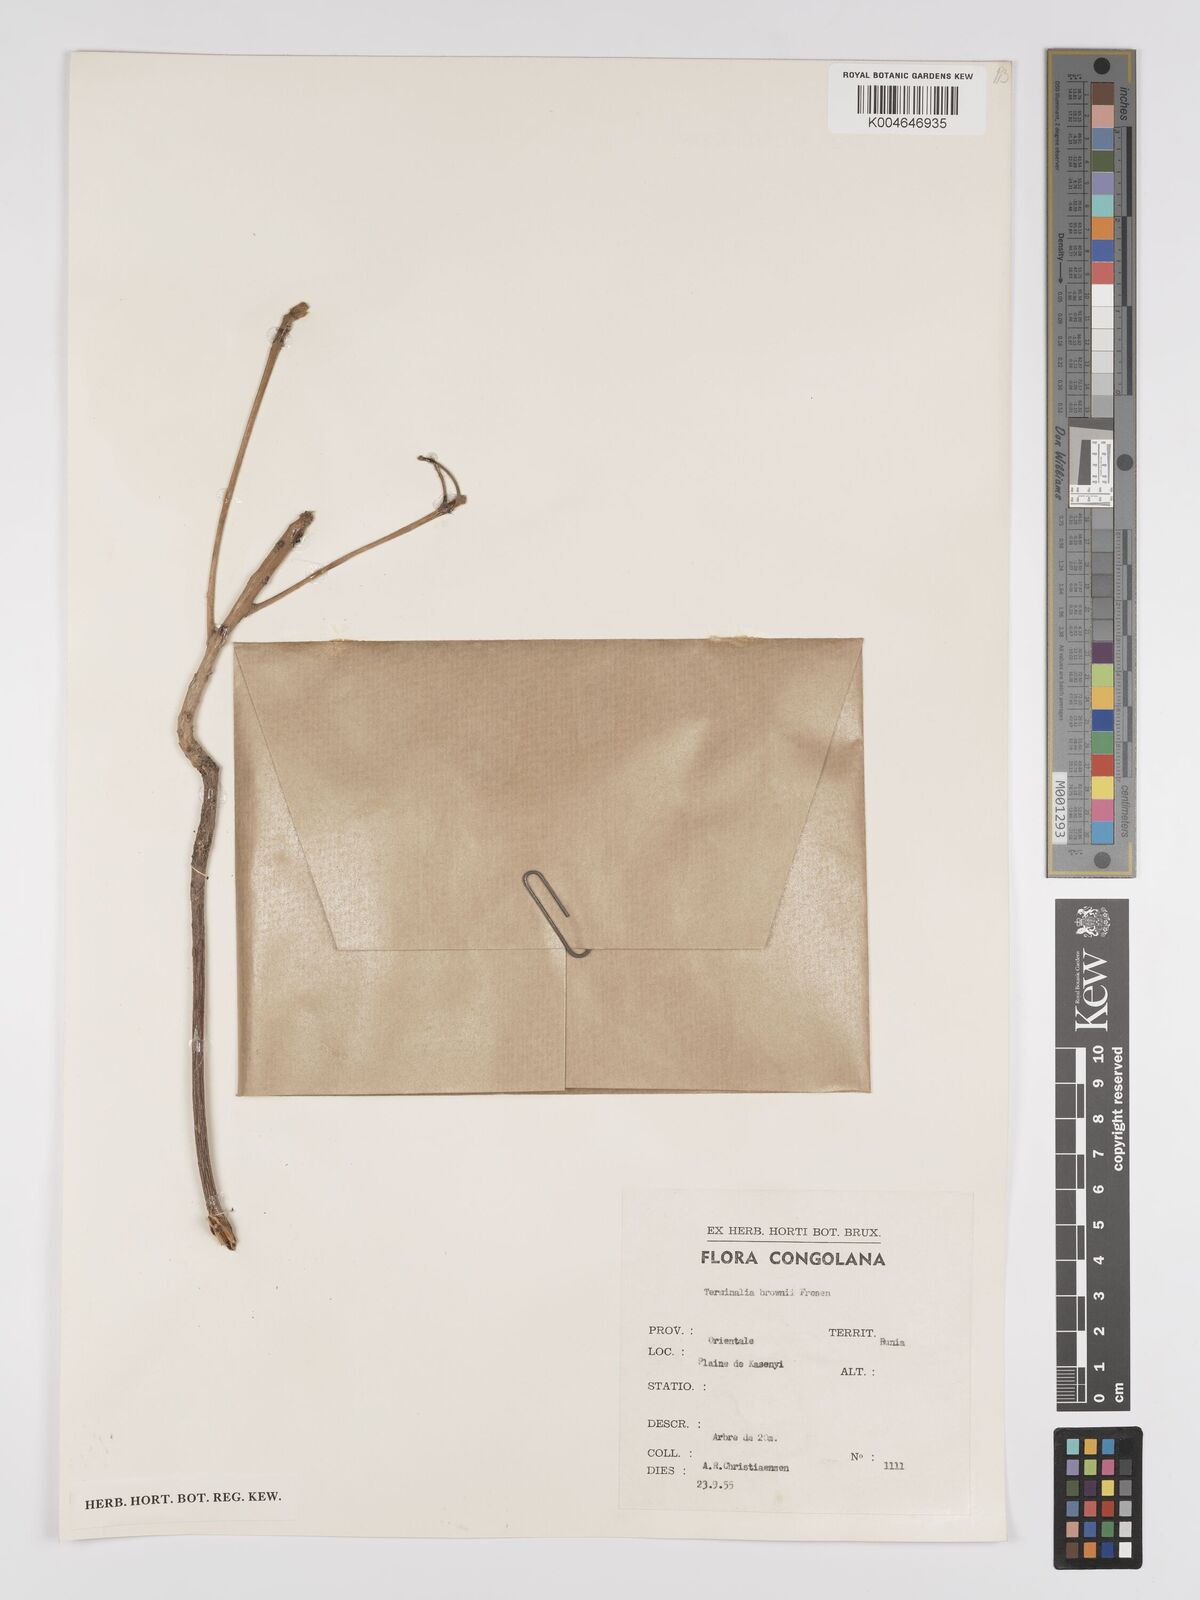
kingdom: Plantae
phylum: Tracheophyta
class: Magnoliopsida
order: Myrtales
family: Combretaceae
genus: Terminalia
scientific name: Terminalia brownii
